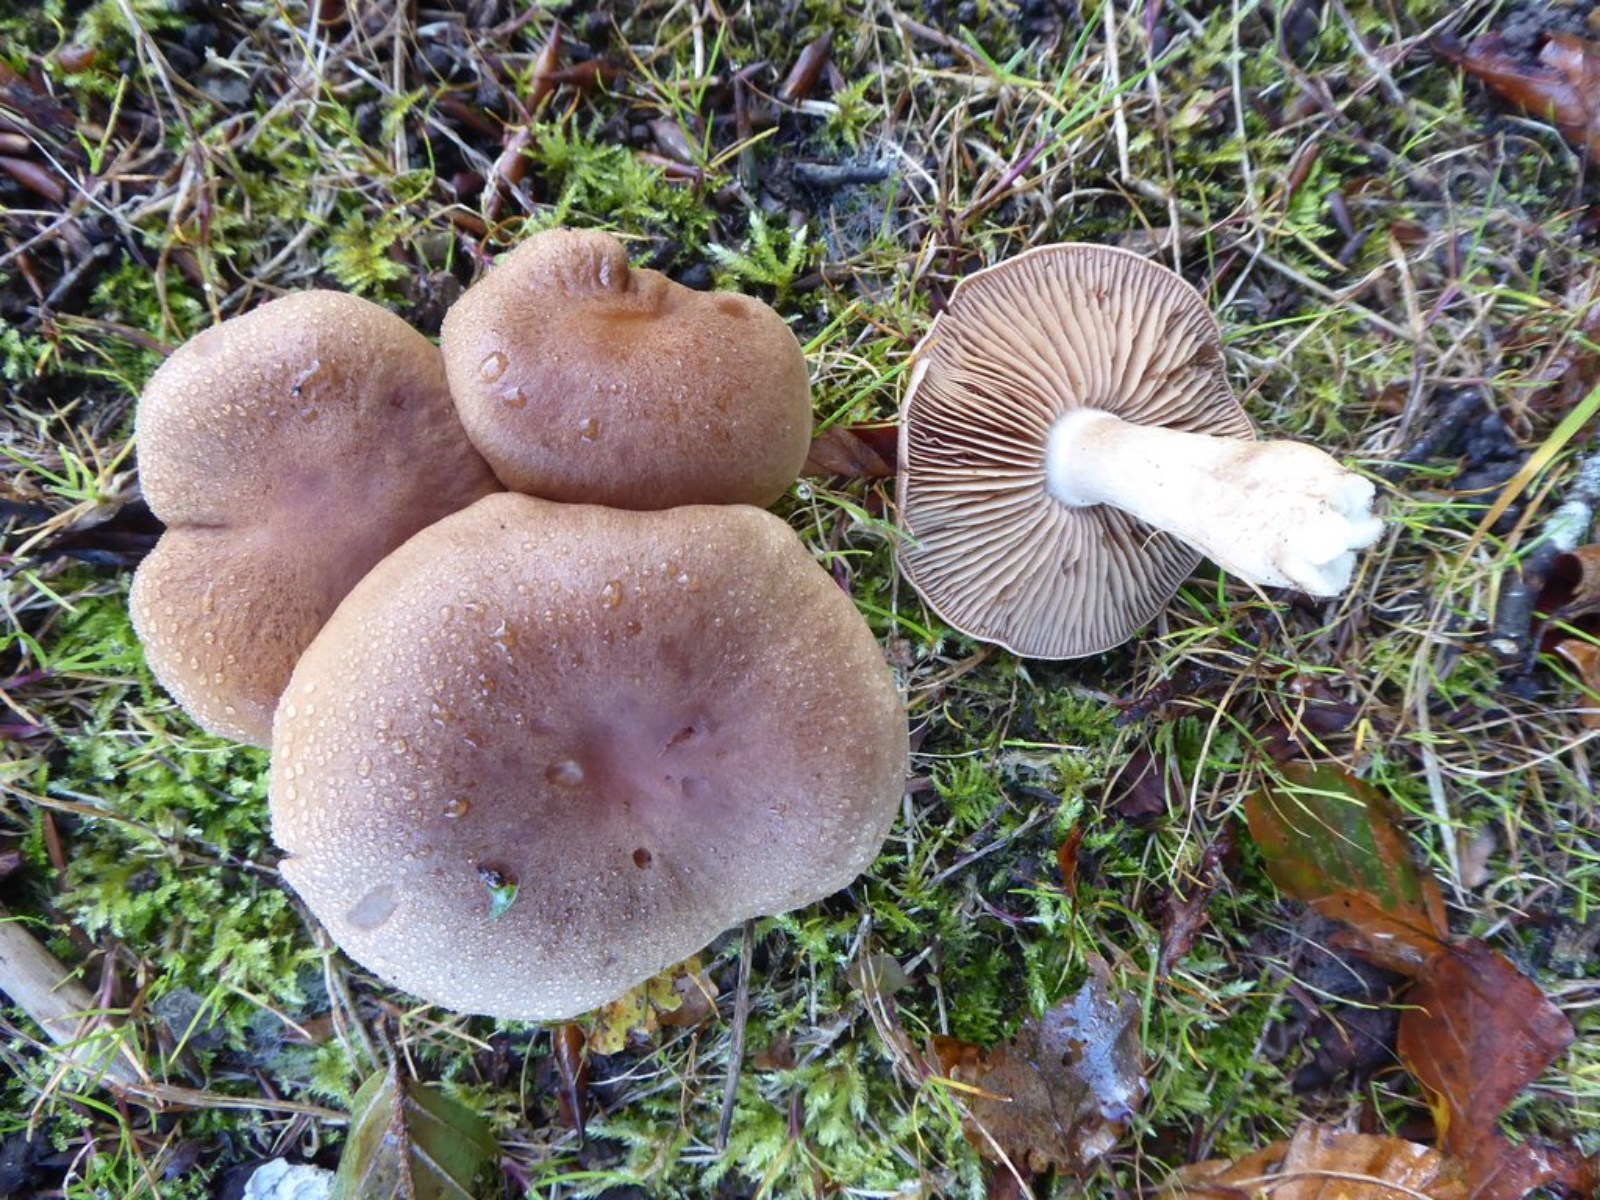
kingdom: Fungi
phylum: Basidiomycota
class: Agaricomycetes
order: Agaricales
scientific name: Agaricales
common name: champignonordenen
